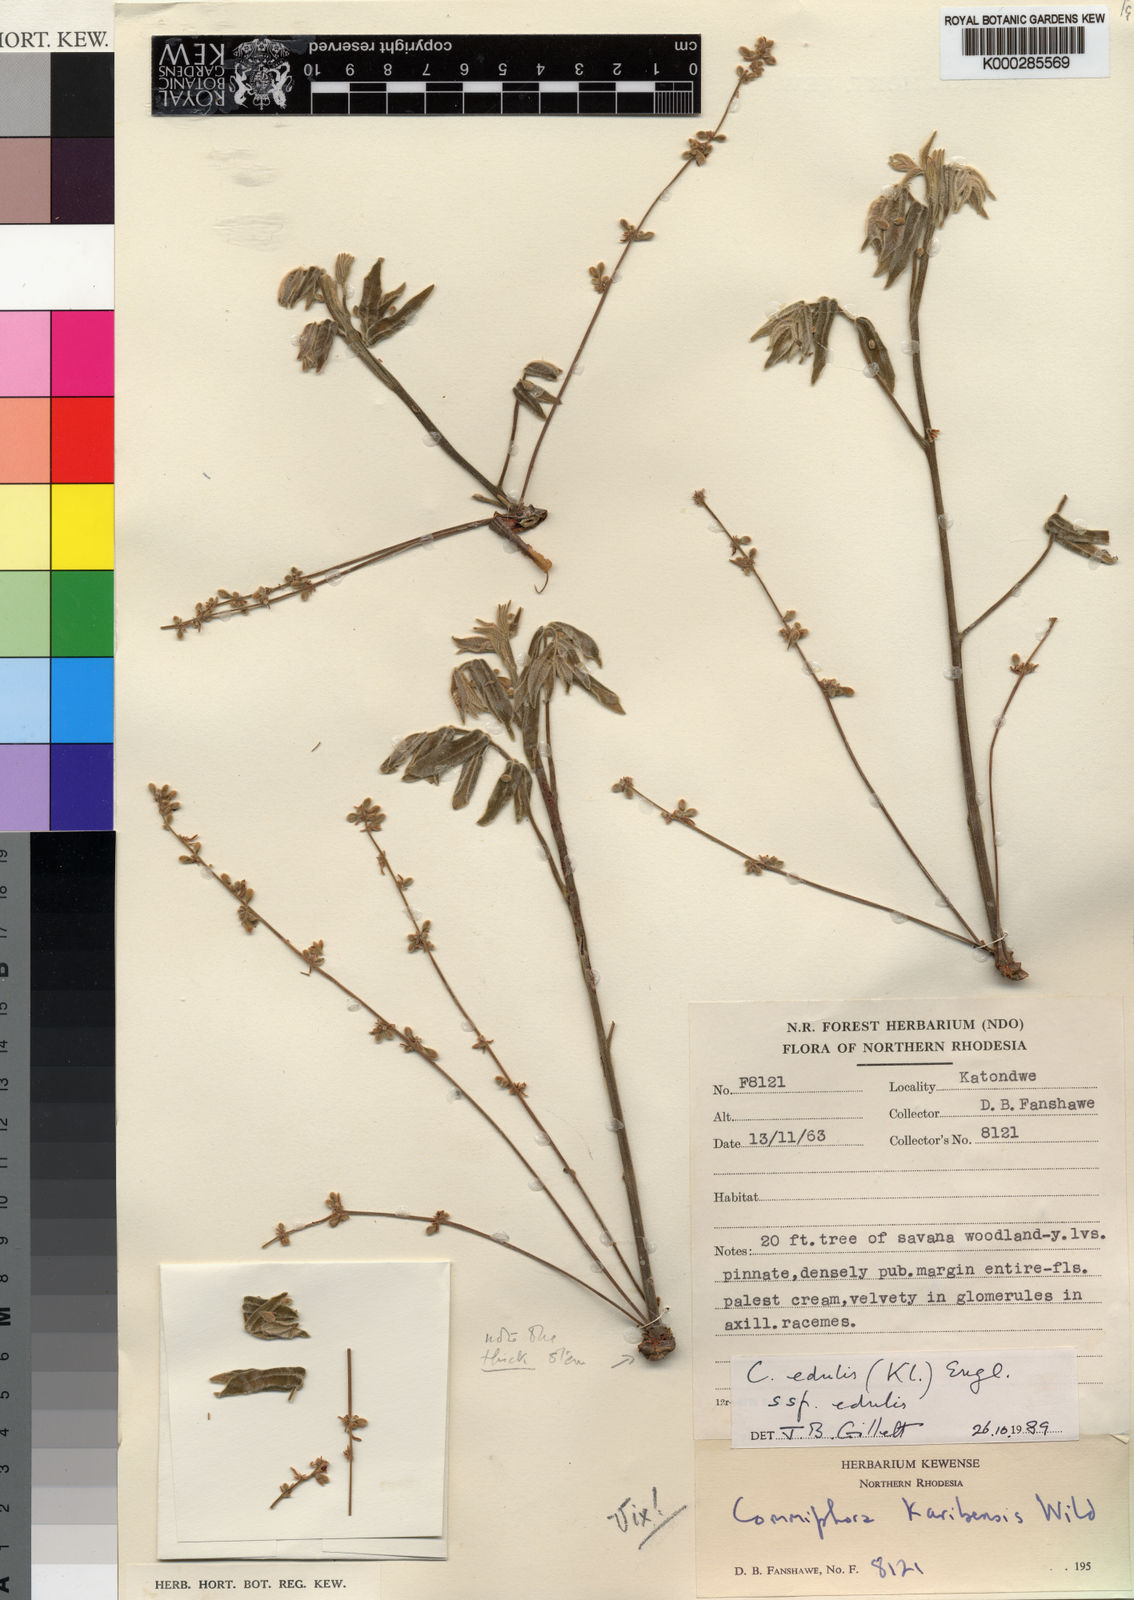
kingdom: Plantae
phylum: Tracheophyta
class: Magnoliopsida
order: Sapindales
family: Burseraceae
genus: Commiphora
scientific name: Commiphora edulis
